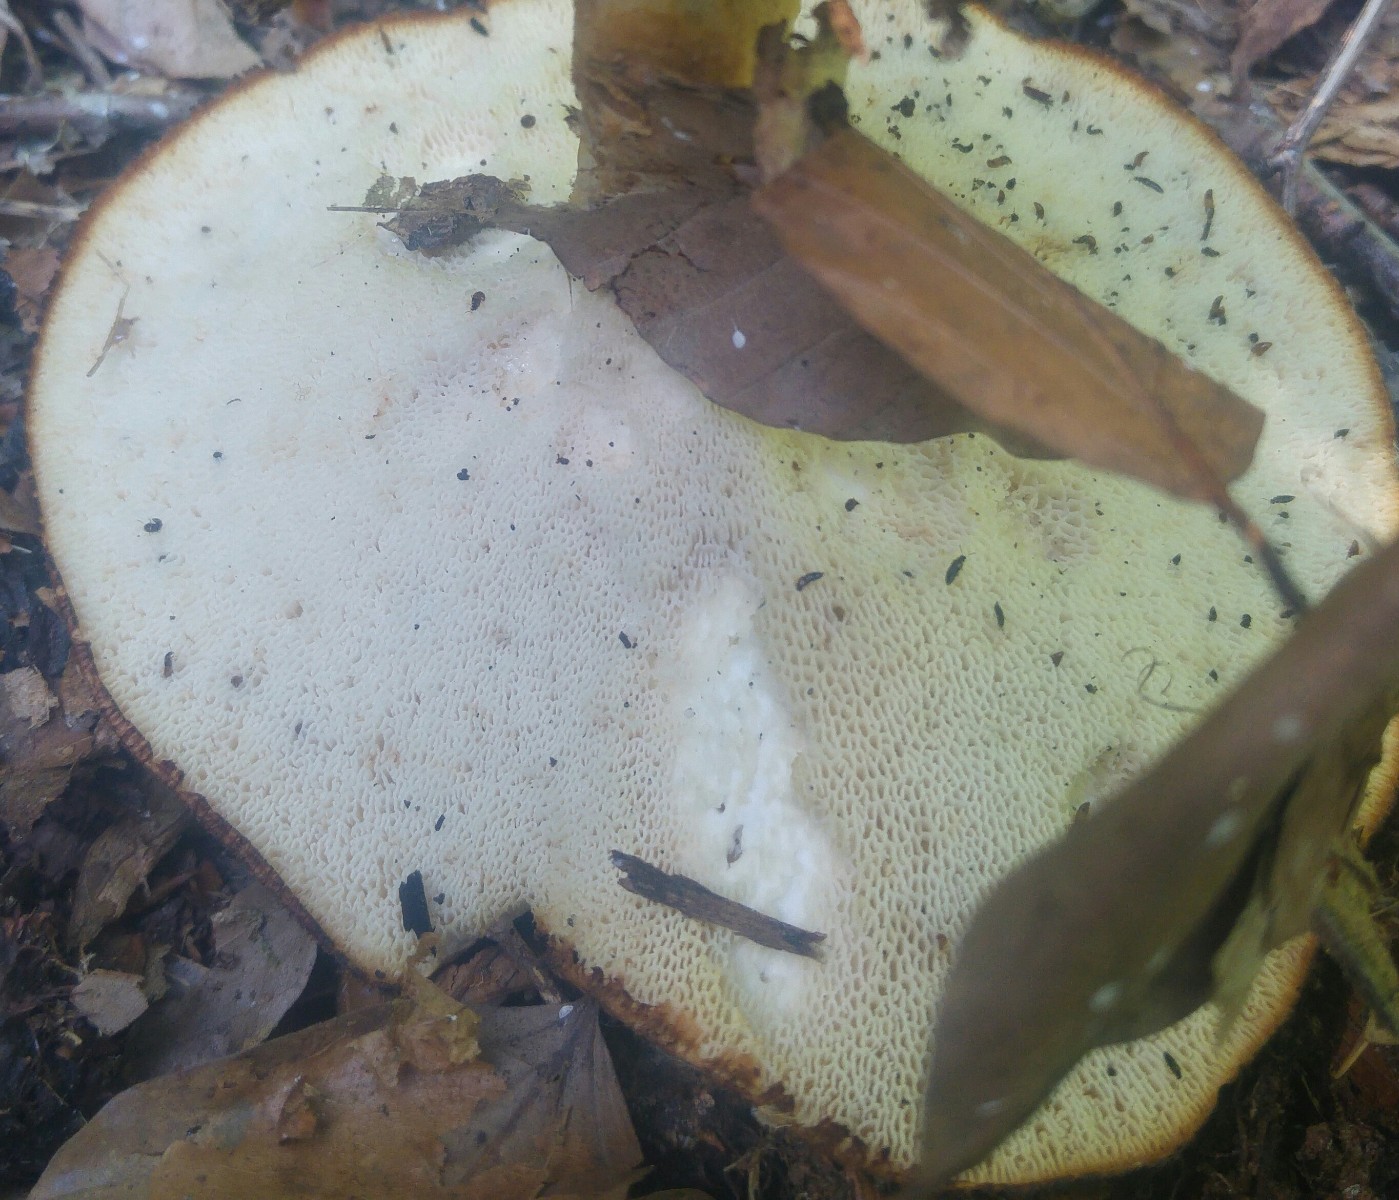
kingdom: Fungi
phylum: Basidiomycota
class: Agaricomycetes
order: Polyporales
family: Polyporaceae
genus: Polyporus
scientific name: Polyporus tuberaster
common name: knoldet stilkporesvamp
